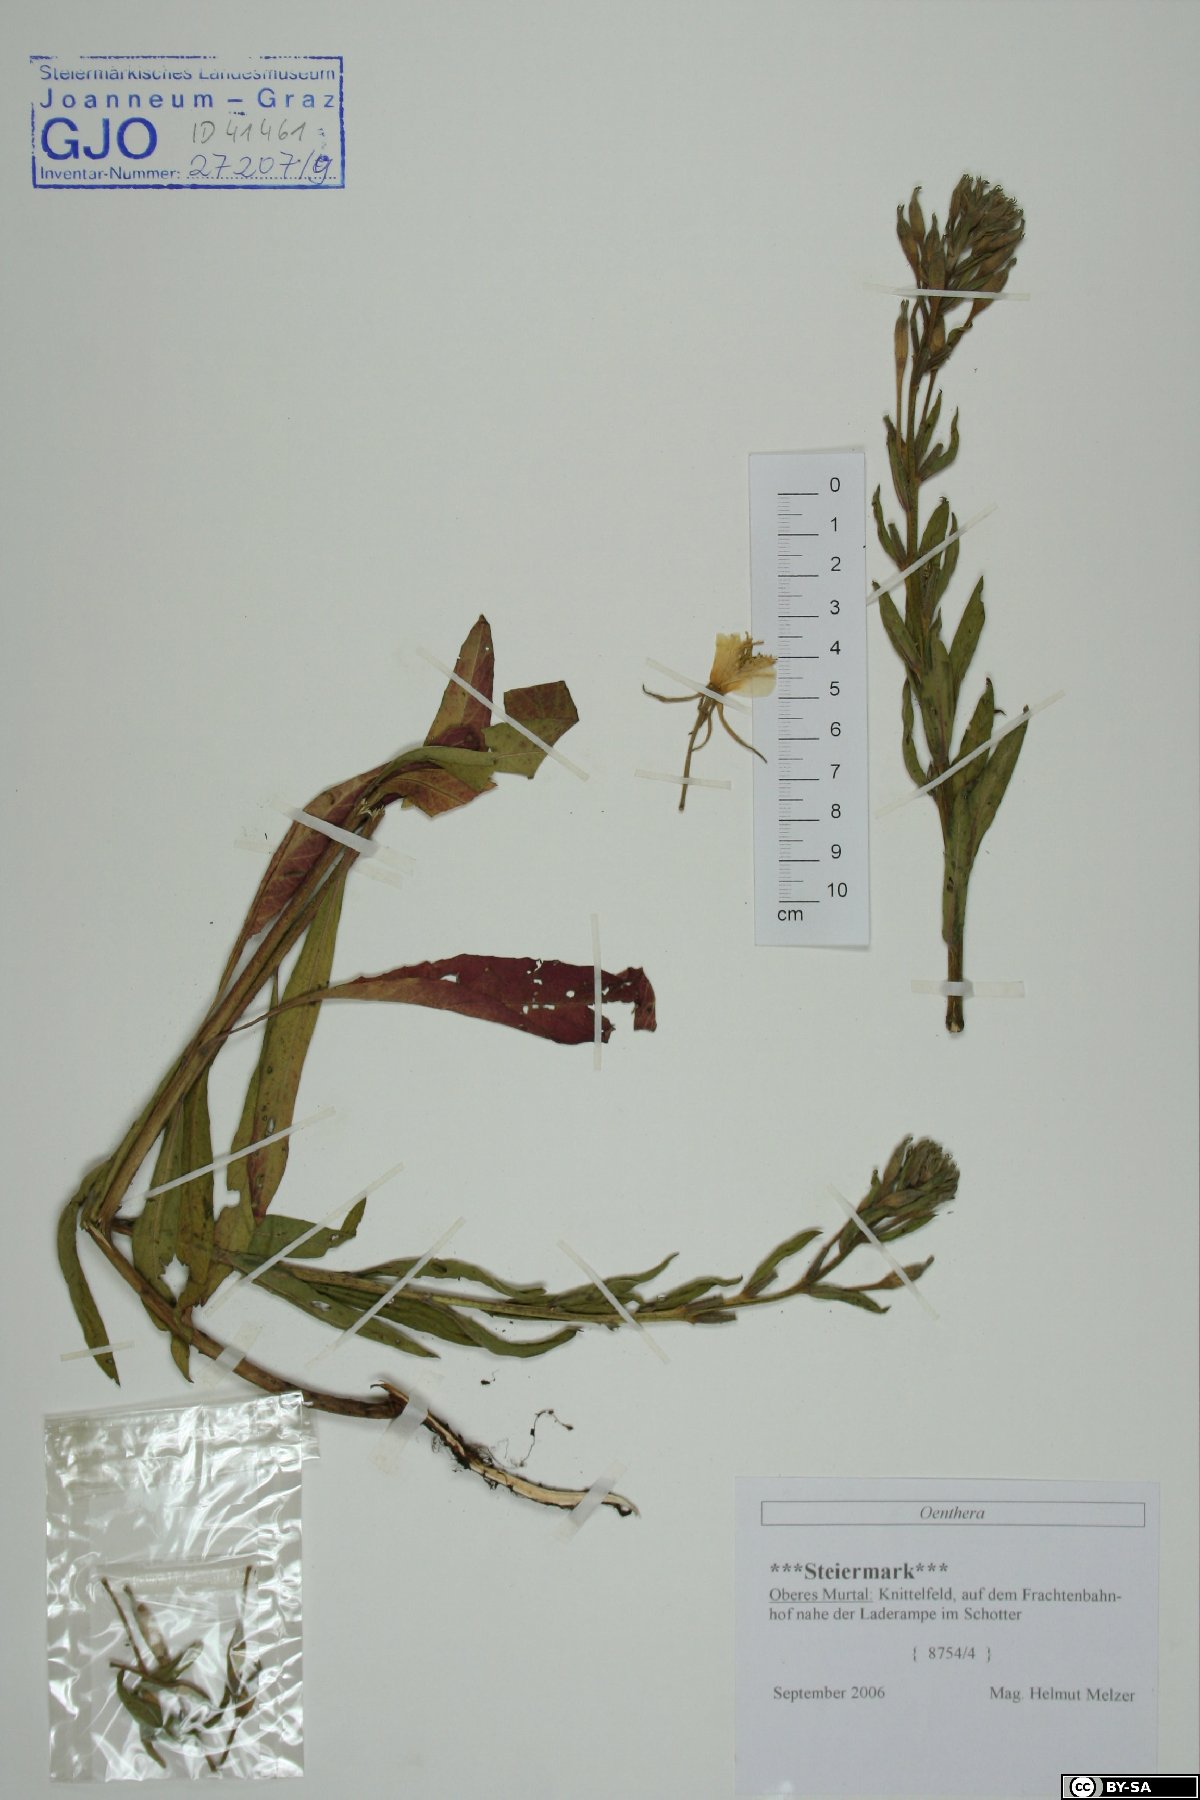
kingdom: Plantae
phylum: Tracheophyta
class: Magnoliopsida
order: Myrtales
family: Onagraceae
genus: Oenothera
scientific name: Oenothera
